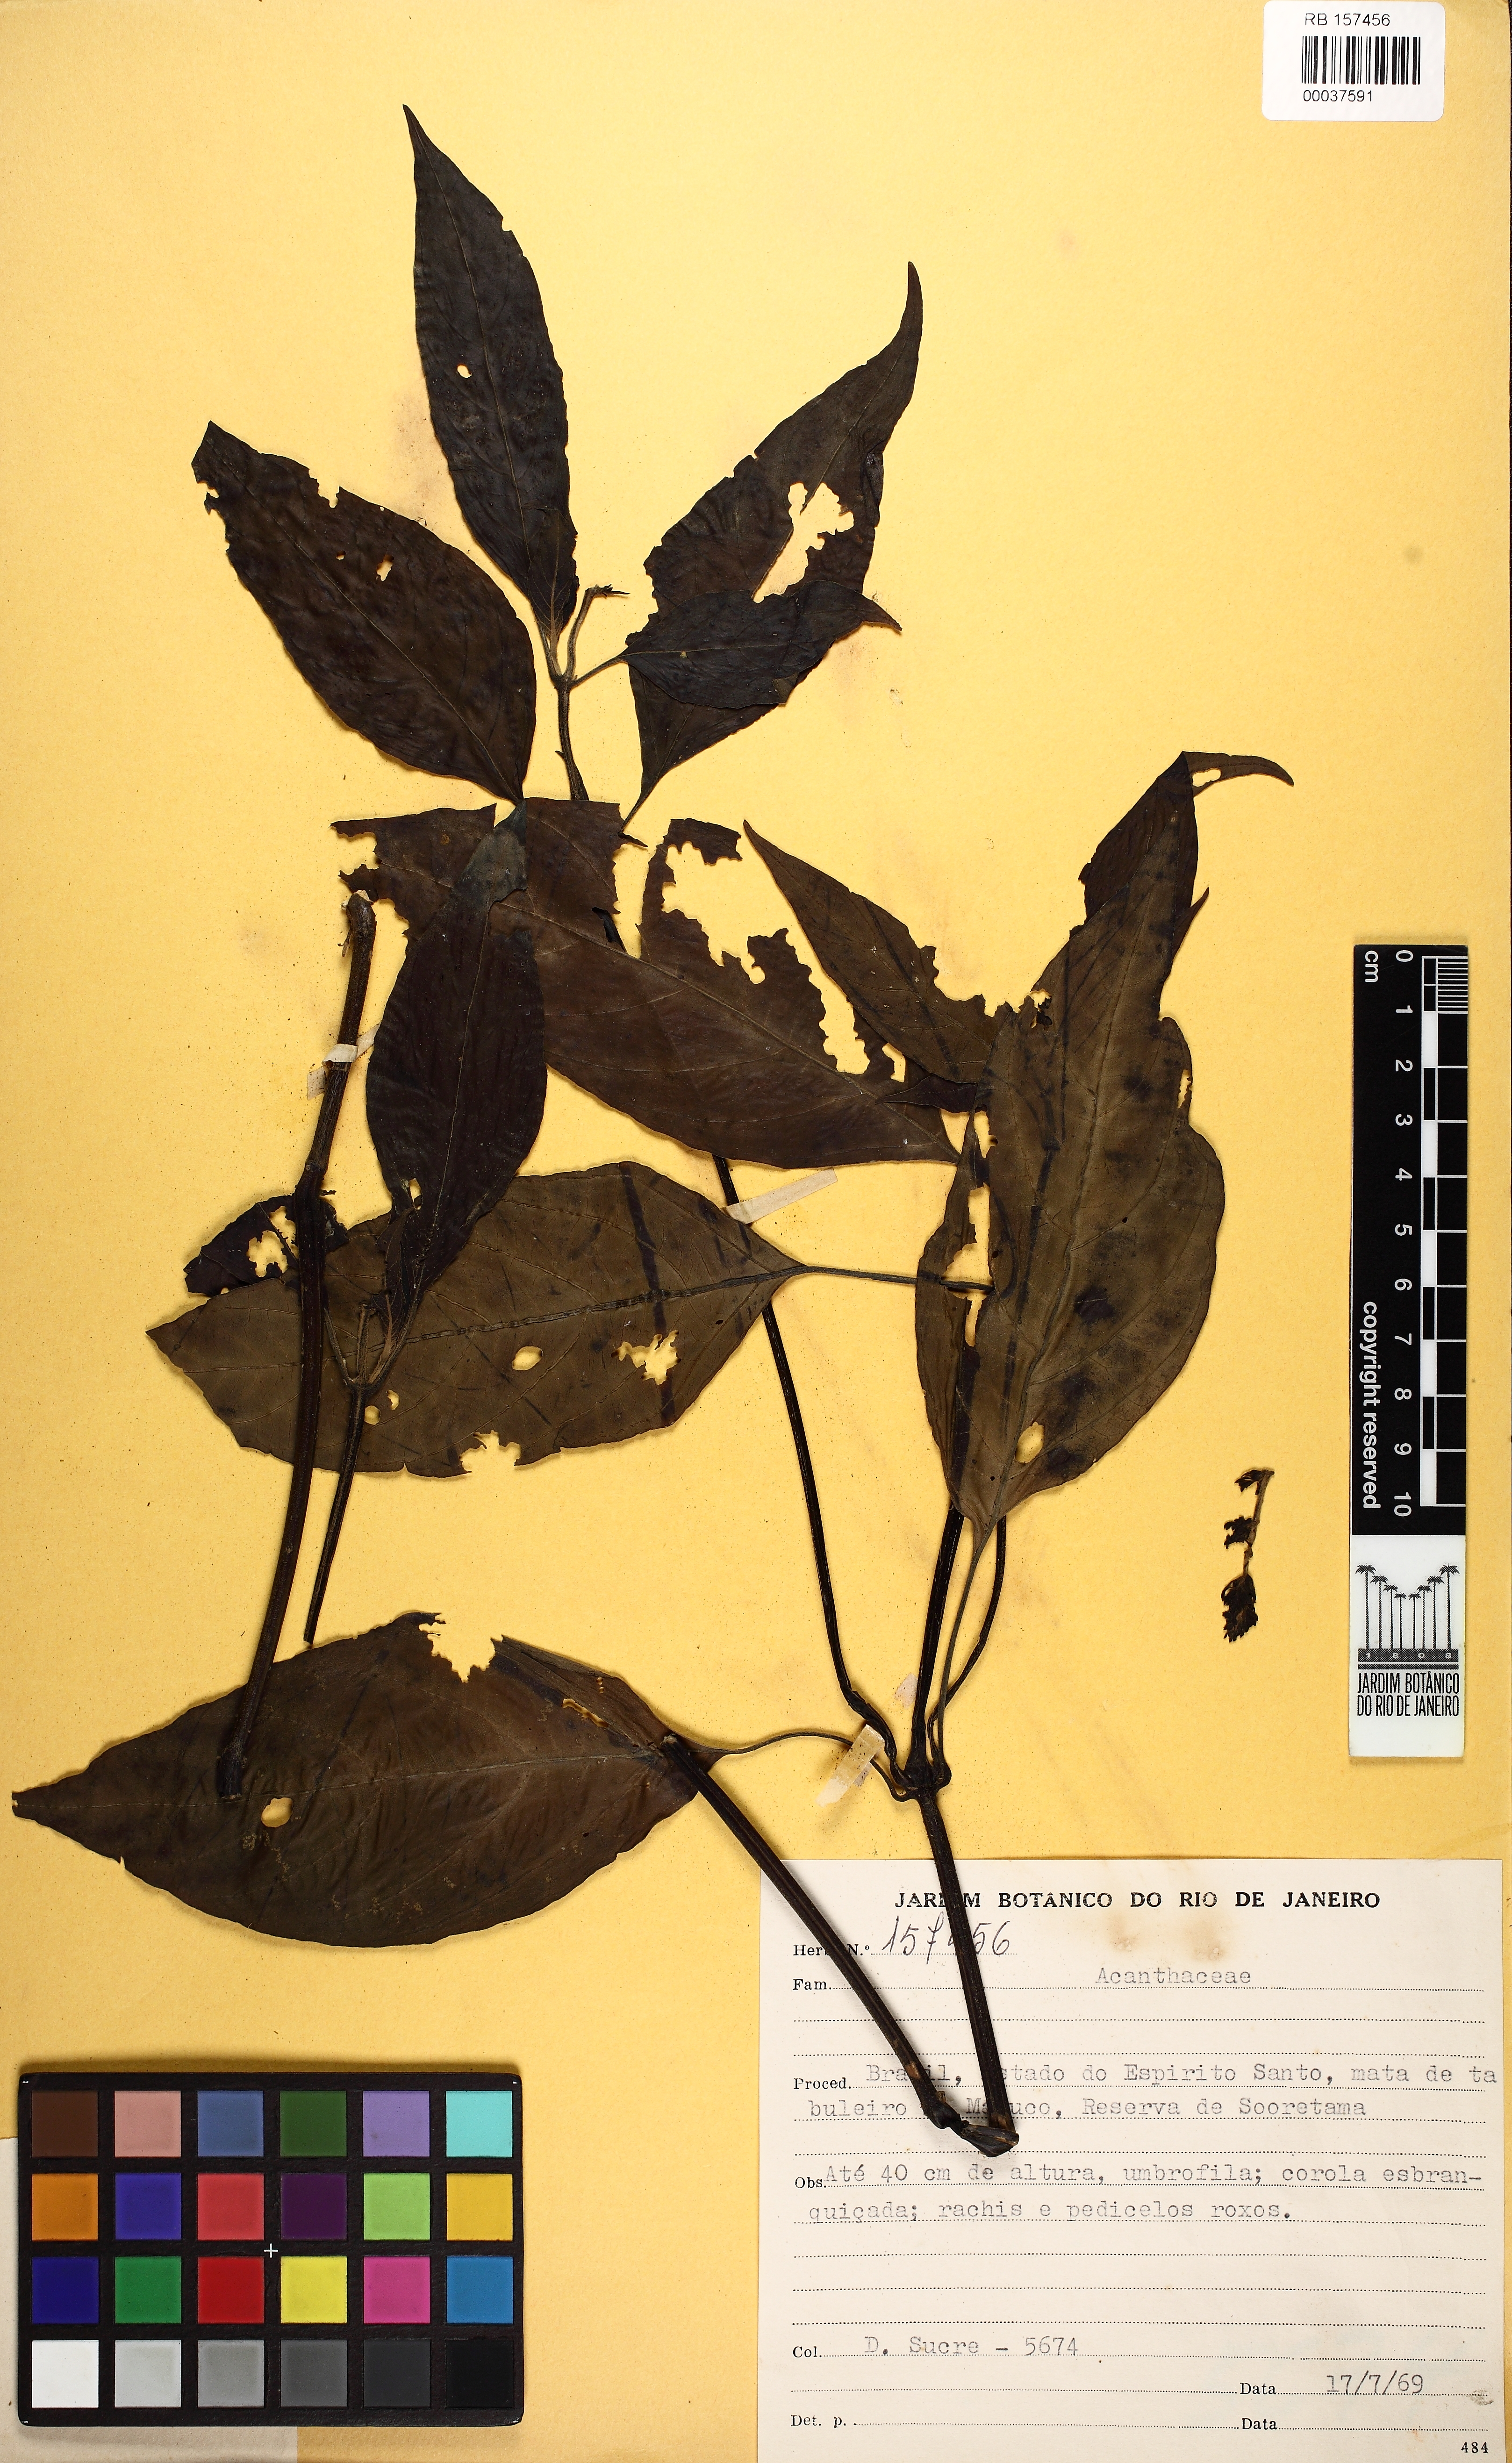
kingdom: Plantae
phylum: Tracheophyta
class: Magnoliopsida
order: Lamiales
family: Acanthaceae
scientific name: Acanthaceae
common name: Acanthaceae
